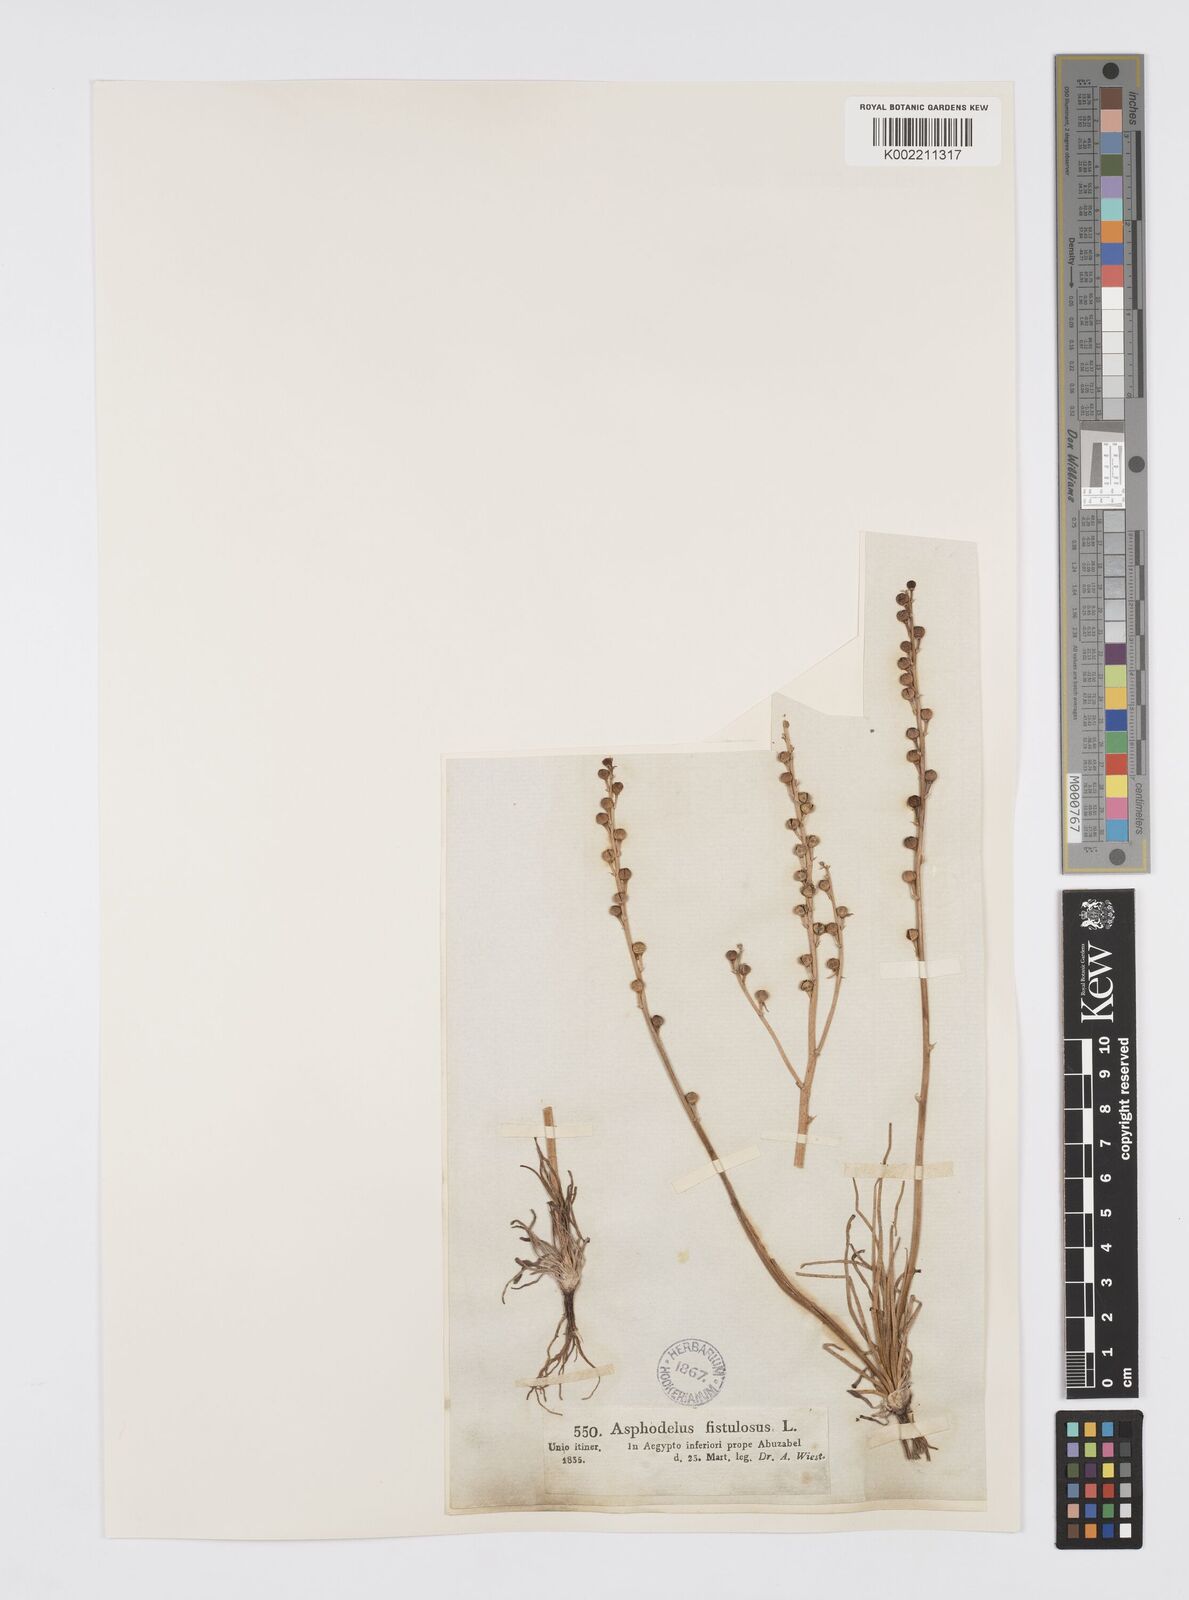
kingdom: Plantae
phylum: Tracheophyta
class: Liliopsida
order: Asparagales
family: Asphodelaceae
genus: Asphodeline
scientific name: Asphodeline tenuior
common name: Thin asphodeline
